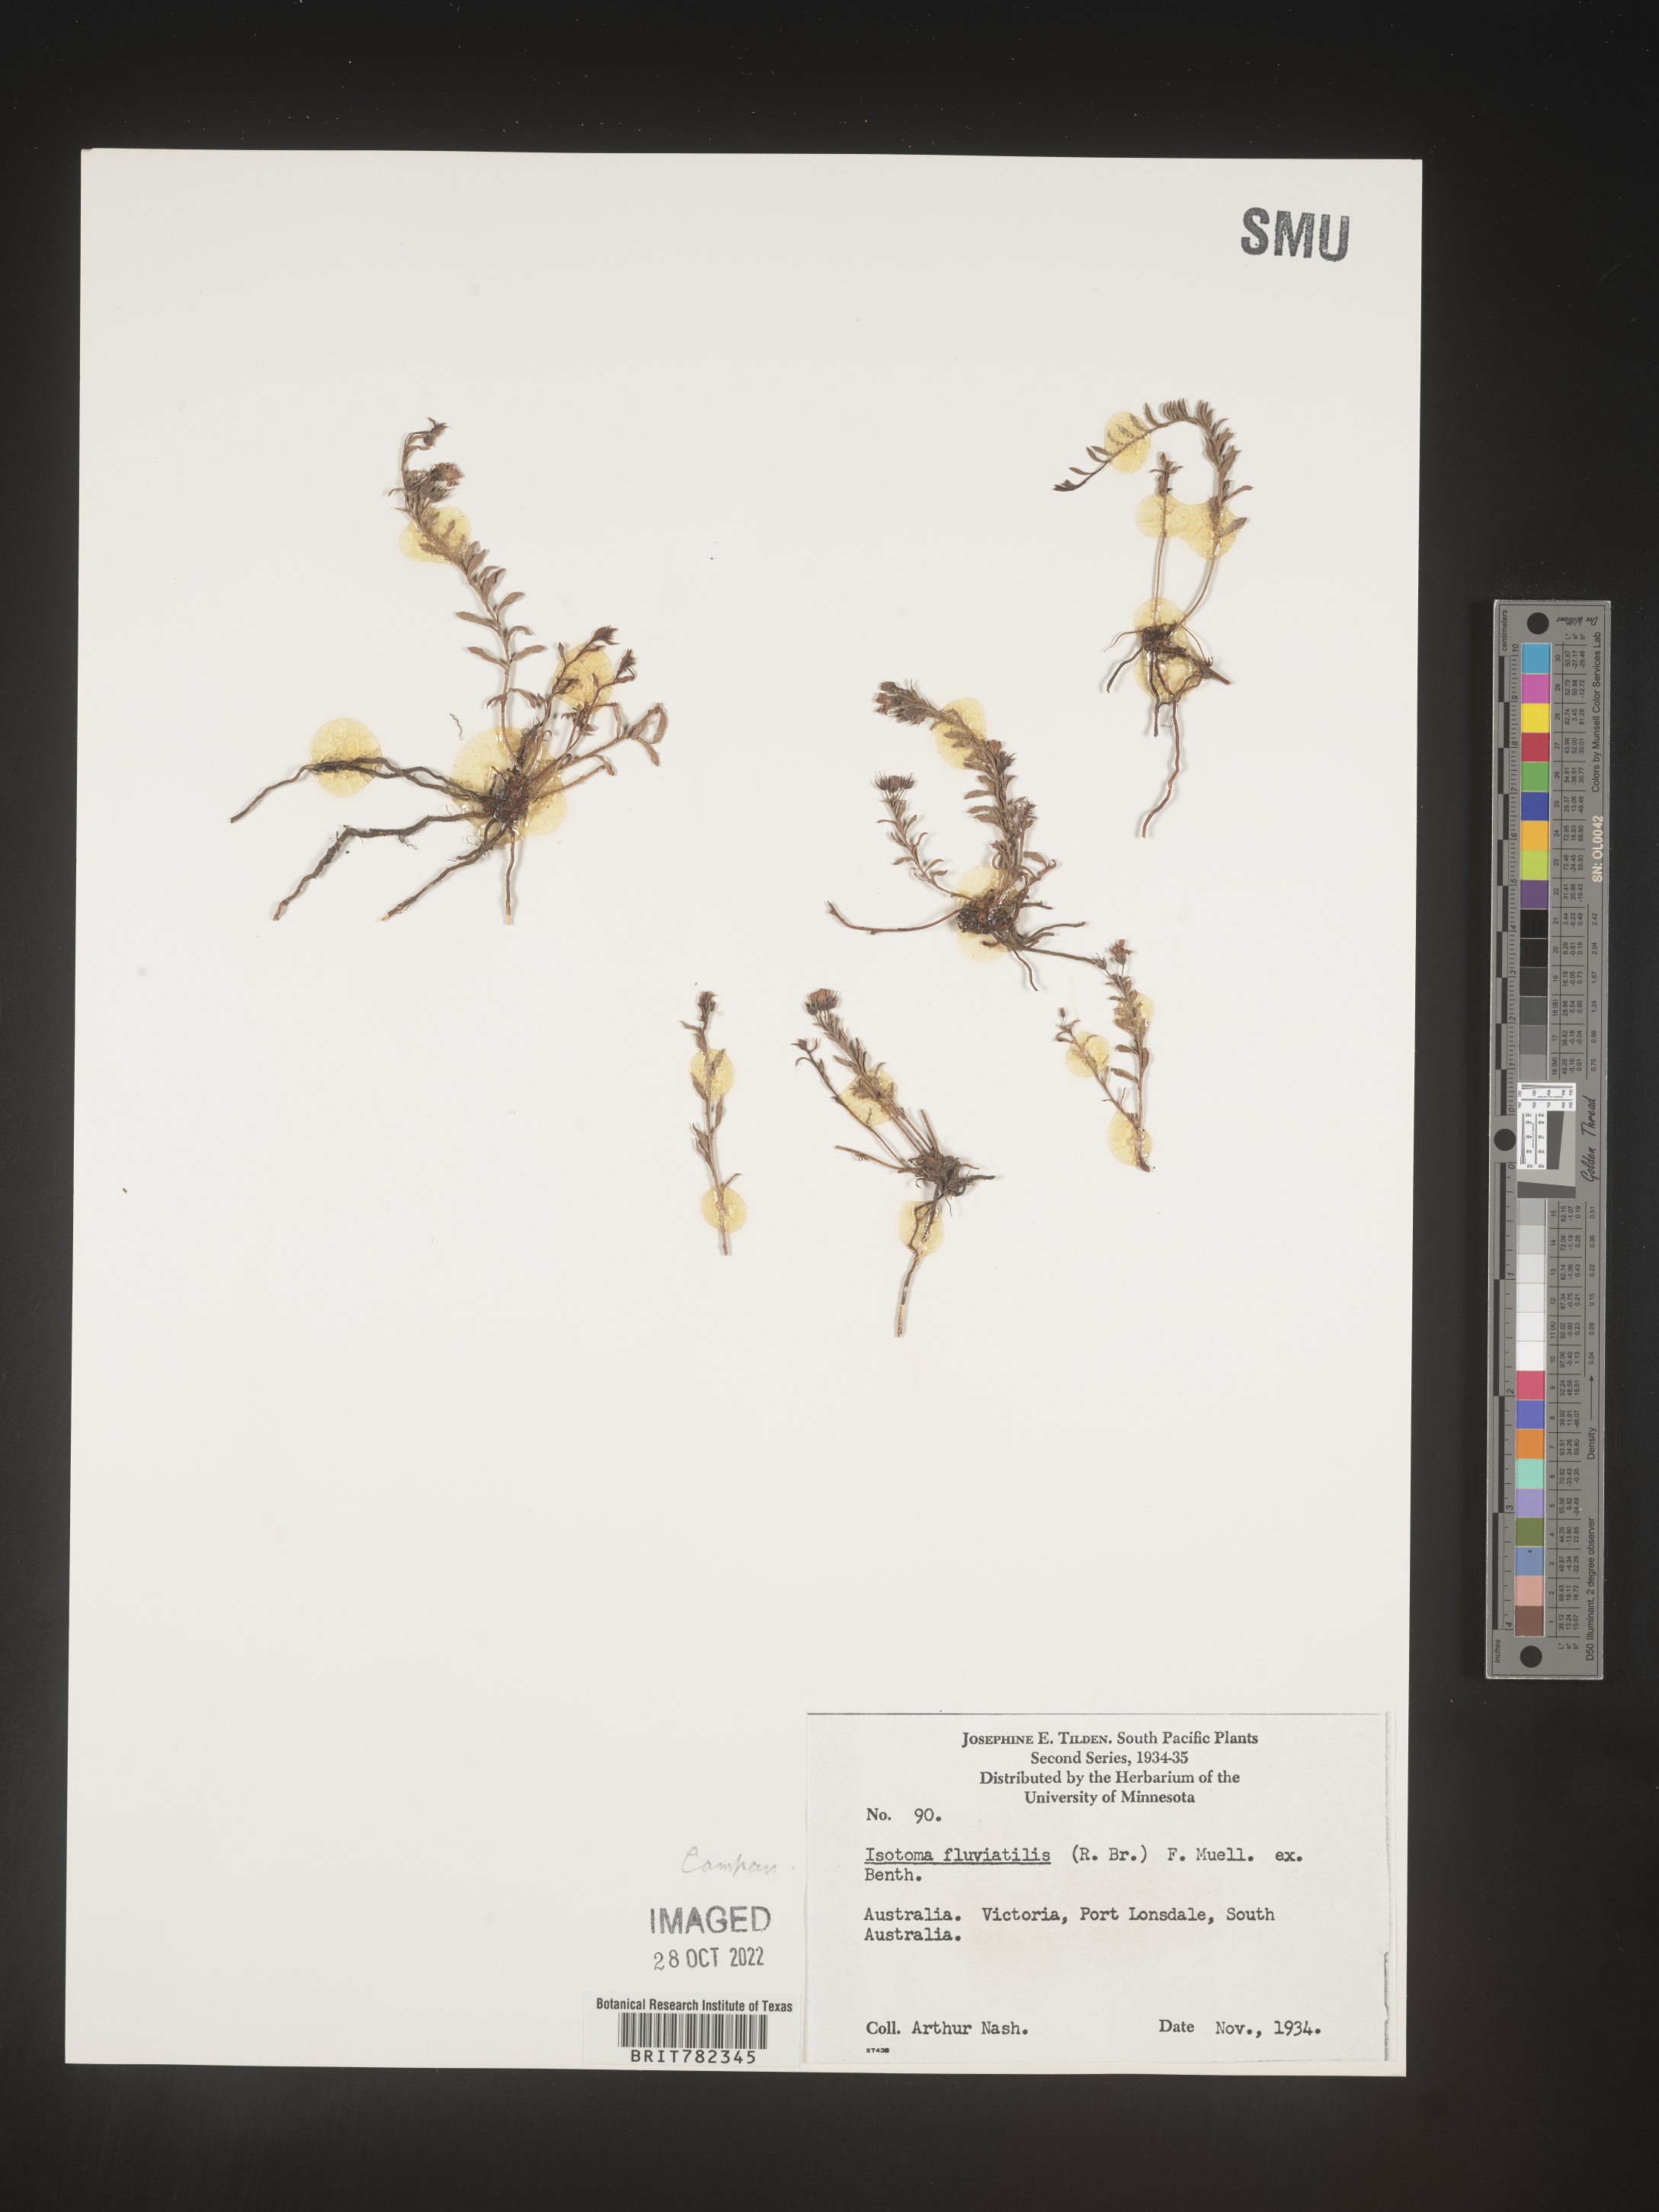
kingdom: Plantae
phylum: Tracheophyta
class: Magnoliopsida
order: Asterales
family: Campanulaceae
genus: Isotoma
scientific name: Isotoma
